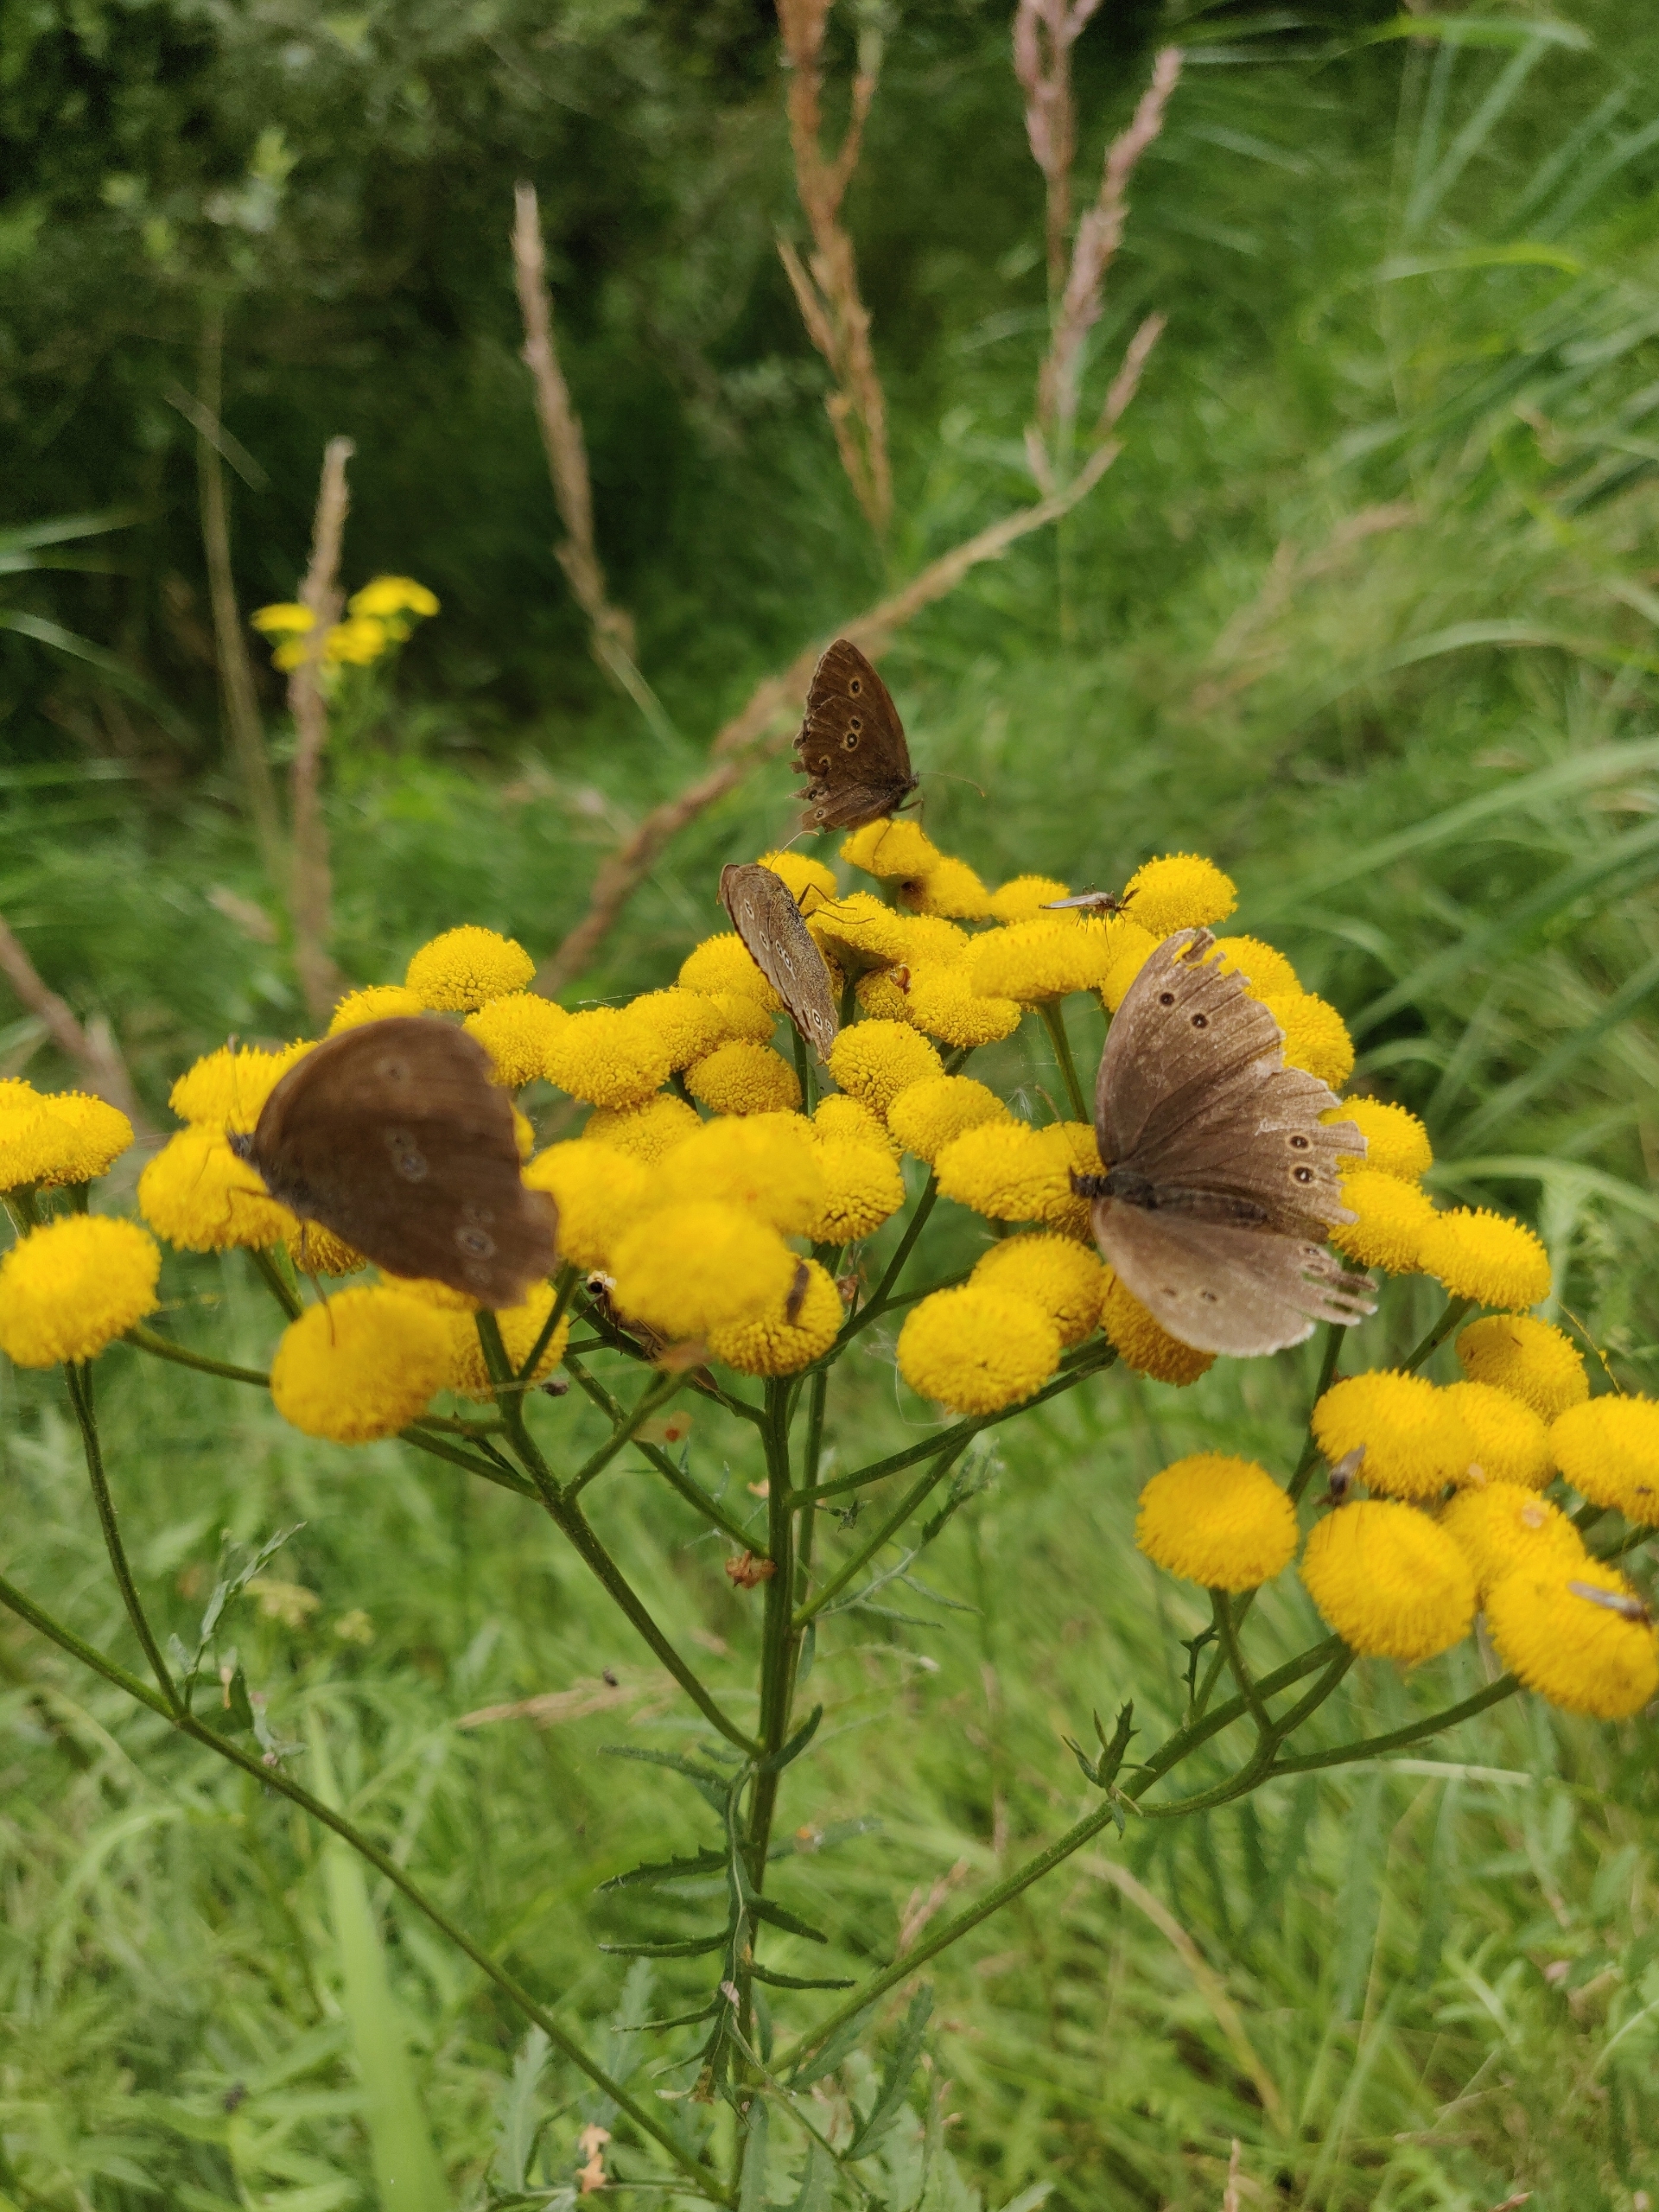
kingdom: Animalia
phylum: Arthropoda
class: Insecta
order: Lepidoptera
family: Nymphalidae
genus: Aphantopus
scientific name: Aphantopus hyperantus
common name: Engrandøje
